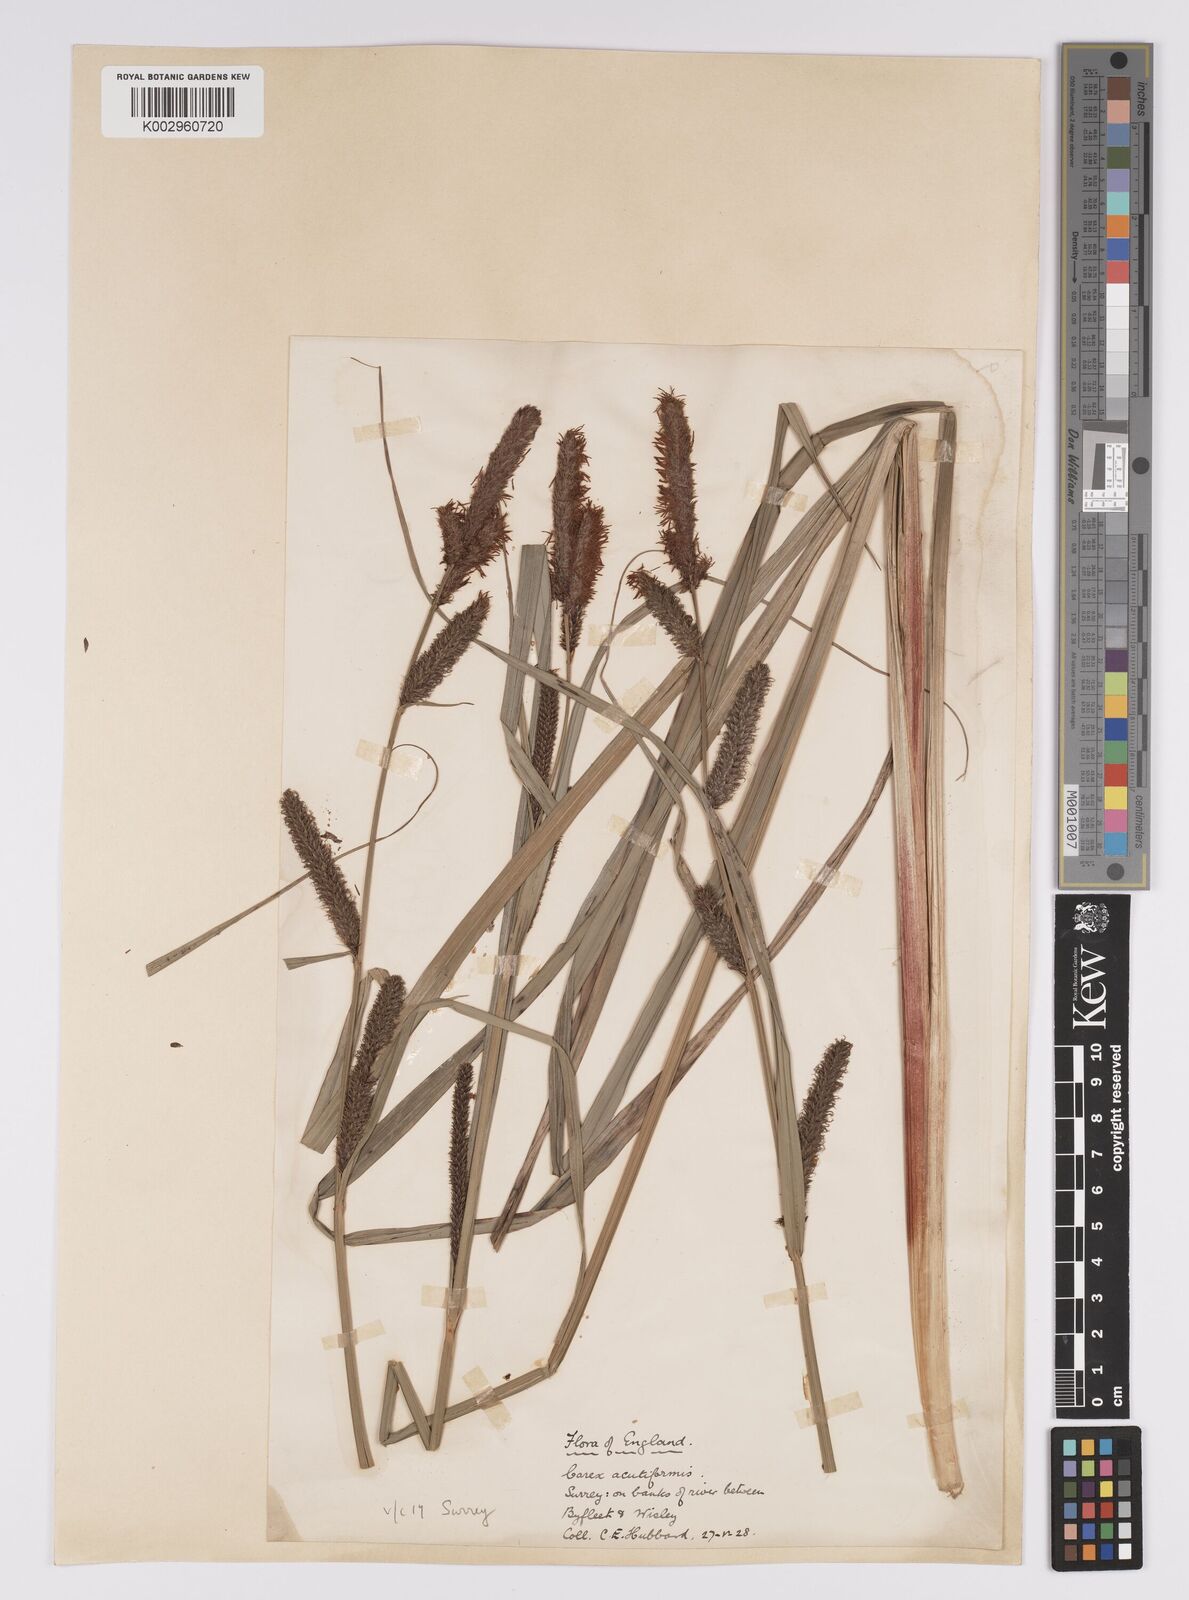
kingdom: Plantae
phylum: Tracheophyta
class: Liliopsida
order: Poales
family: Cyperaceae
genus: Carex
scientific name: Carex acutiformis
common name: Lesser pond-sedge
